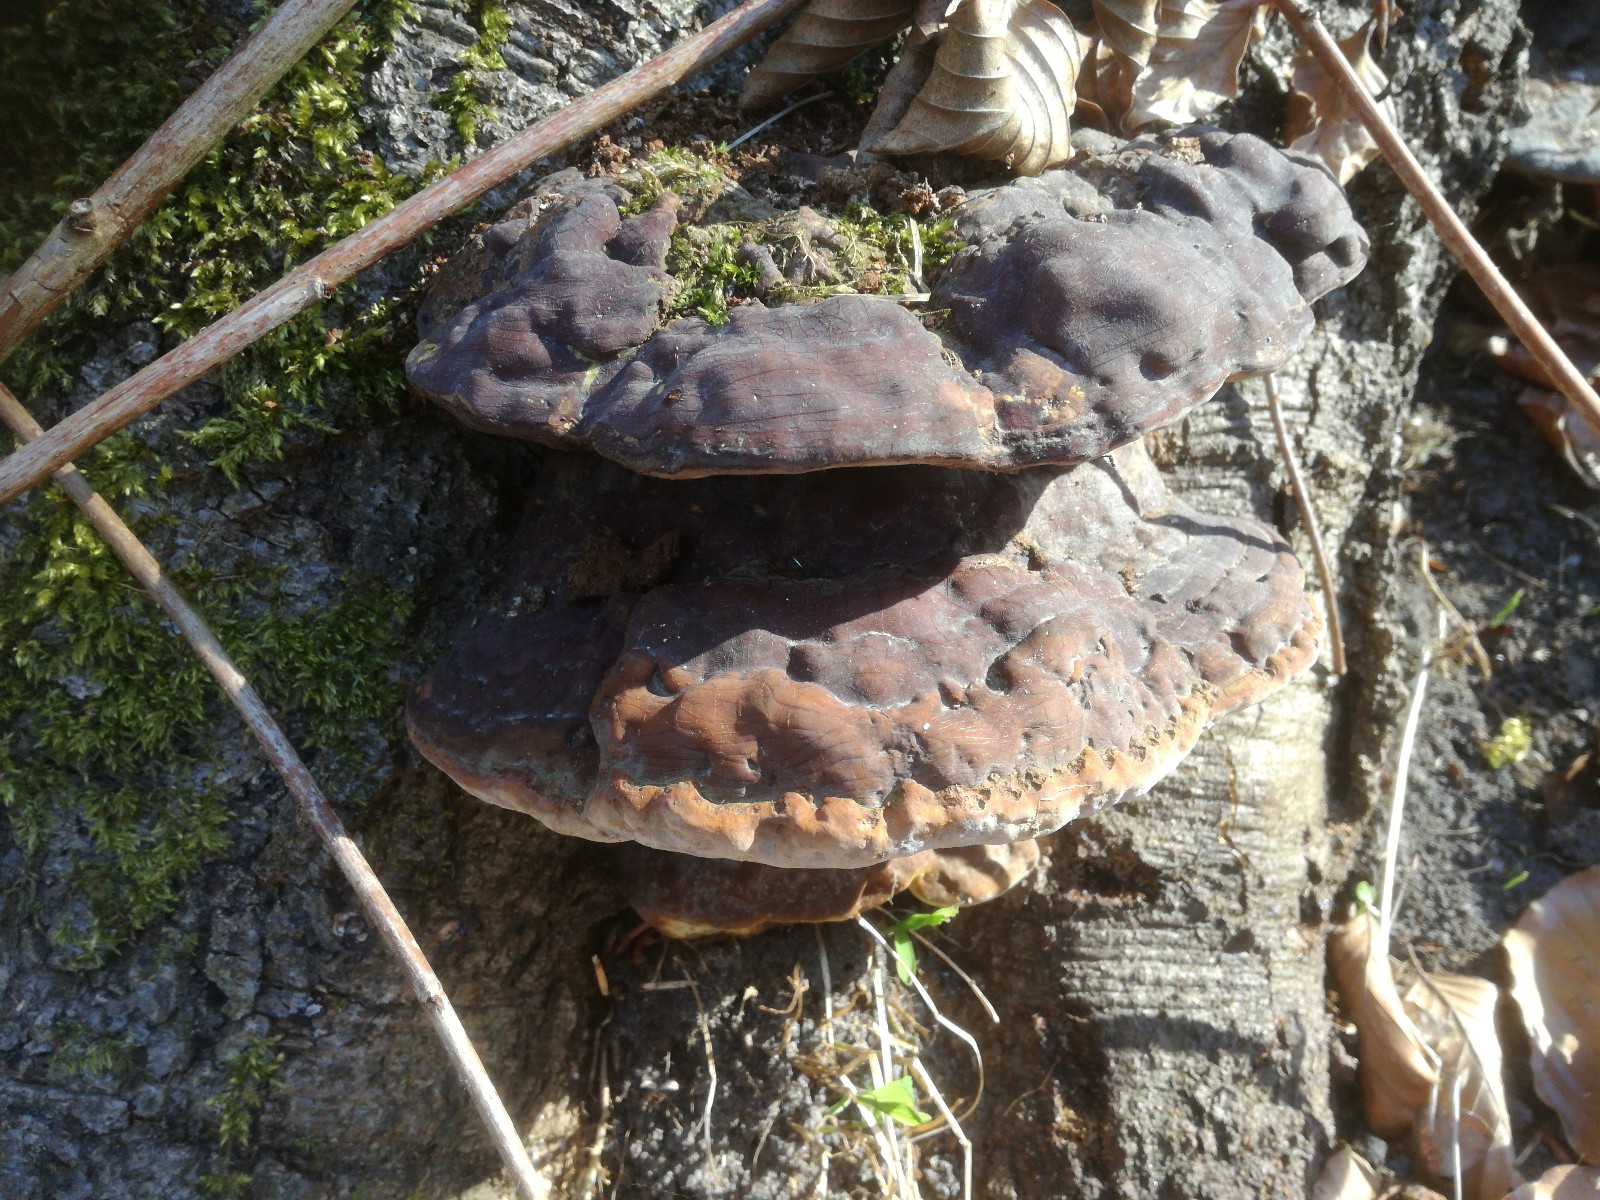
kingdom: Fungi
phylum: Basidiomycota
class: Agaricomycetes
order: Polyporales
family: Polyporaceae
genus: Ganoderma
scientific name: Ganoderma pfeifferi
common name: kobberrød lakporesvamp
